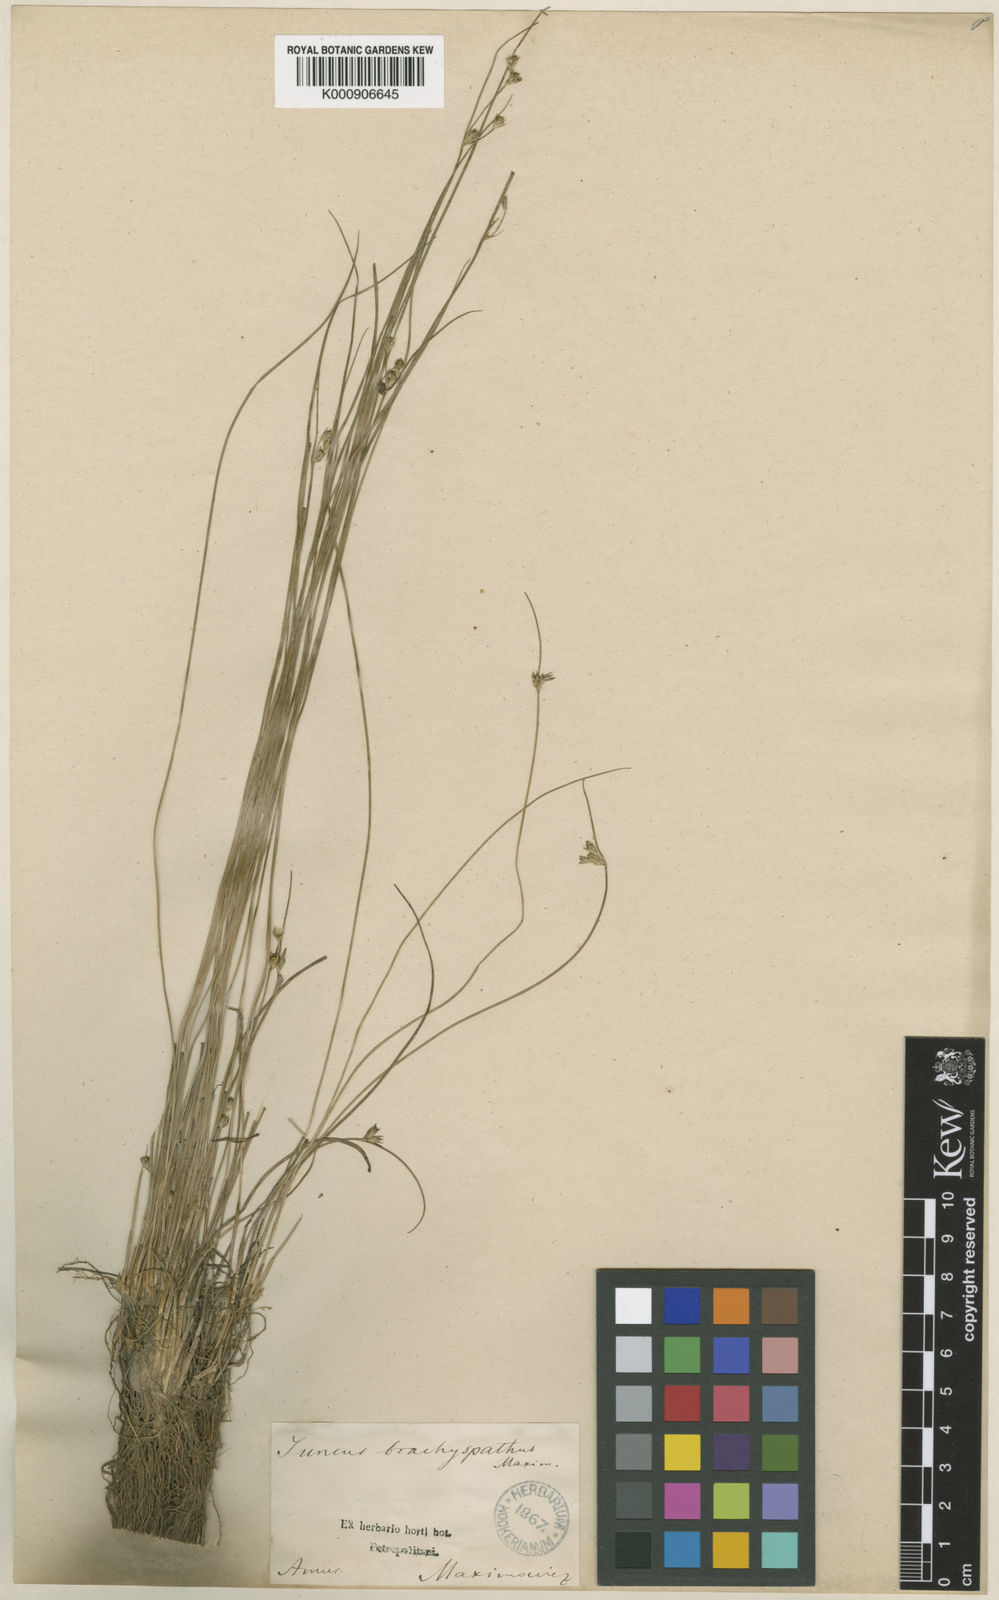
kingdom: Plantae
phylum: Tracheophyta
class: Liliopsida
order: Poales
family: Juncaceae
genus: Juncus
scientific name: Juncus brachyspathus
